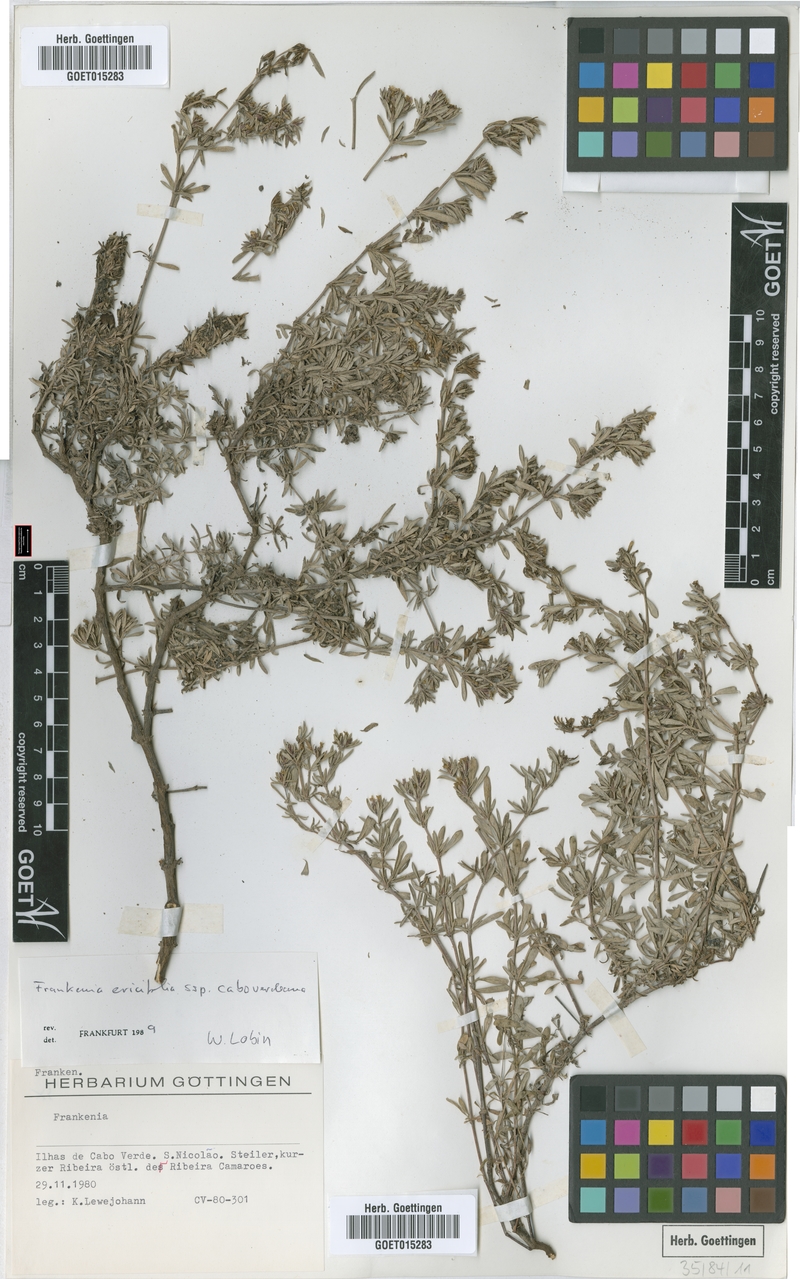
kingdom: Plantae
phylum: Tracheophyta
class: Magnoliopsida
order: Caryophyllales
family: Frankeniaceae
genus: Frankenia
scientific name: Frankenia caboverdeana
